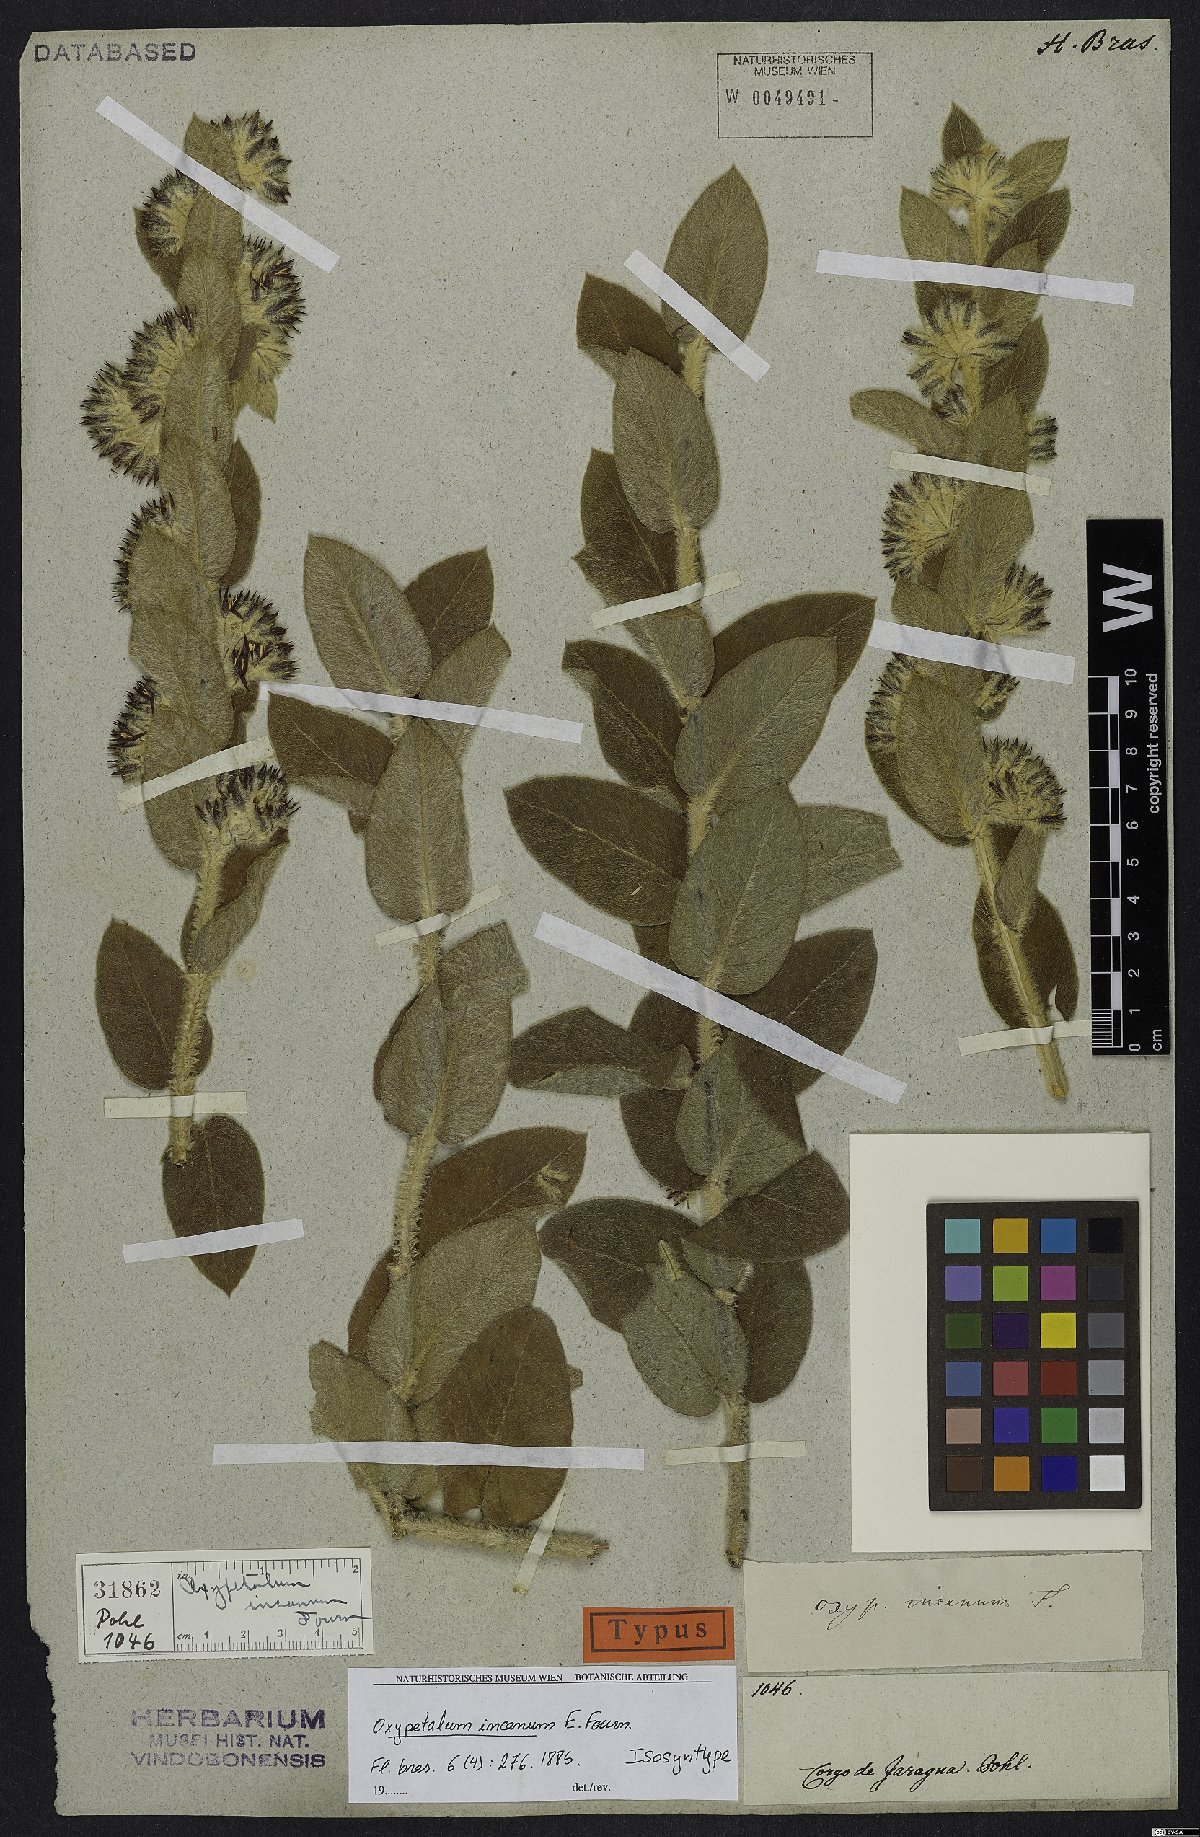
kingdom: Plantae
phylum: Tracheophyta
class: Magnoliopsida
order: Gentianales
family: Apocynaceae
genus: Oxypetalum
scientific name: Oxypetalum incanum
